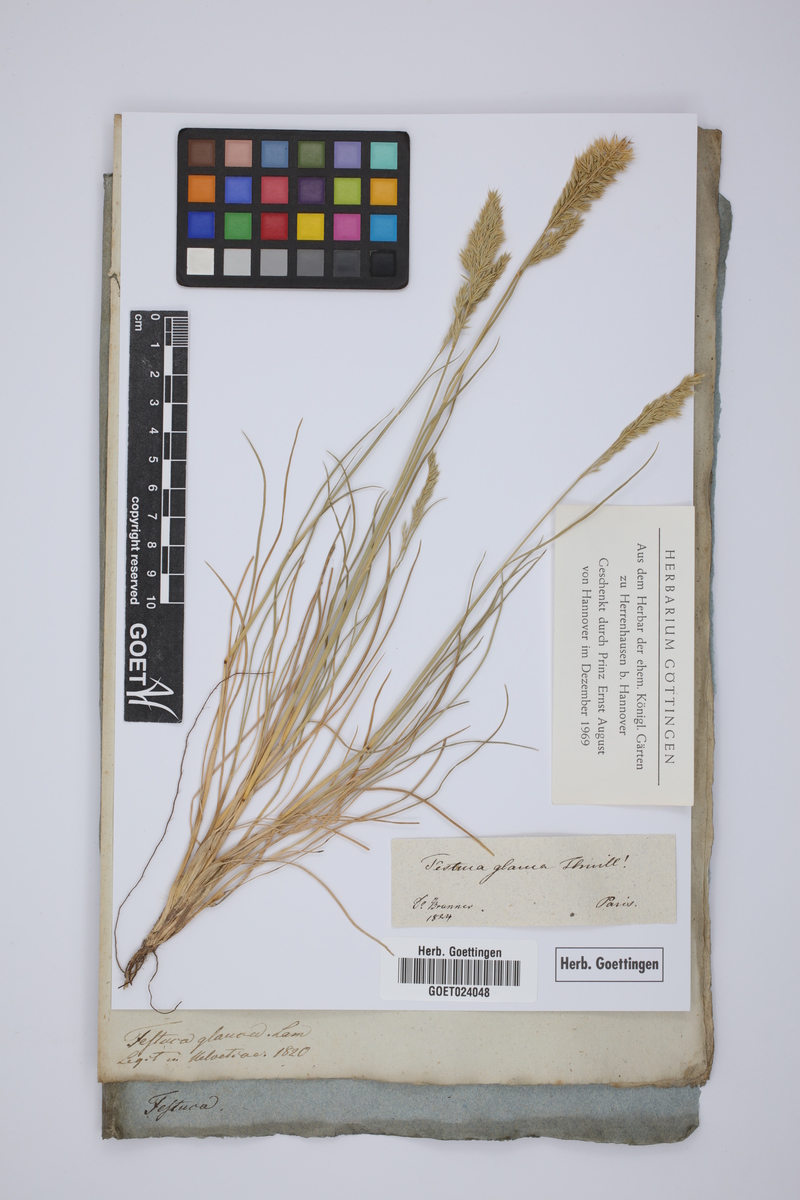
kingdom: Plantae
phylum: Tracheophyta
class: Liliopsida
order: Poales
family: Poaceae
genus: Festuca
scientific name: Festuca
